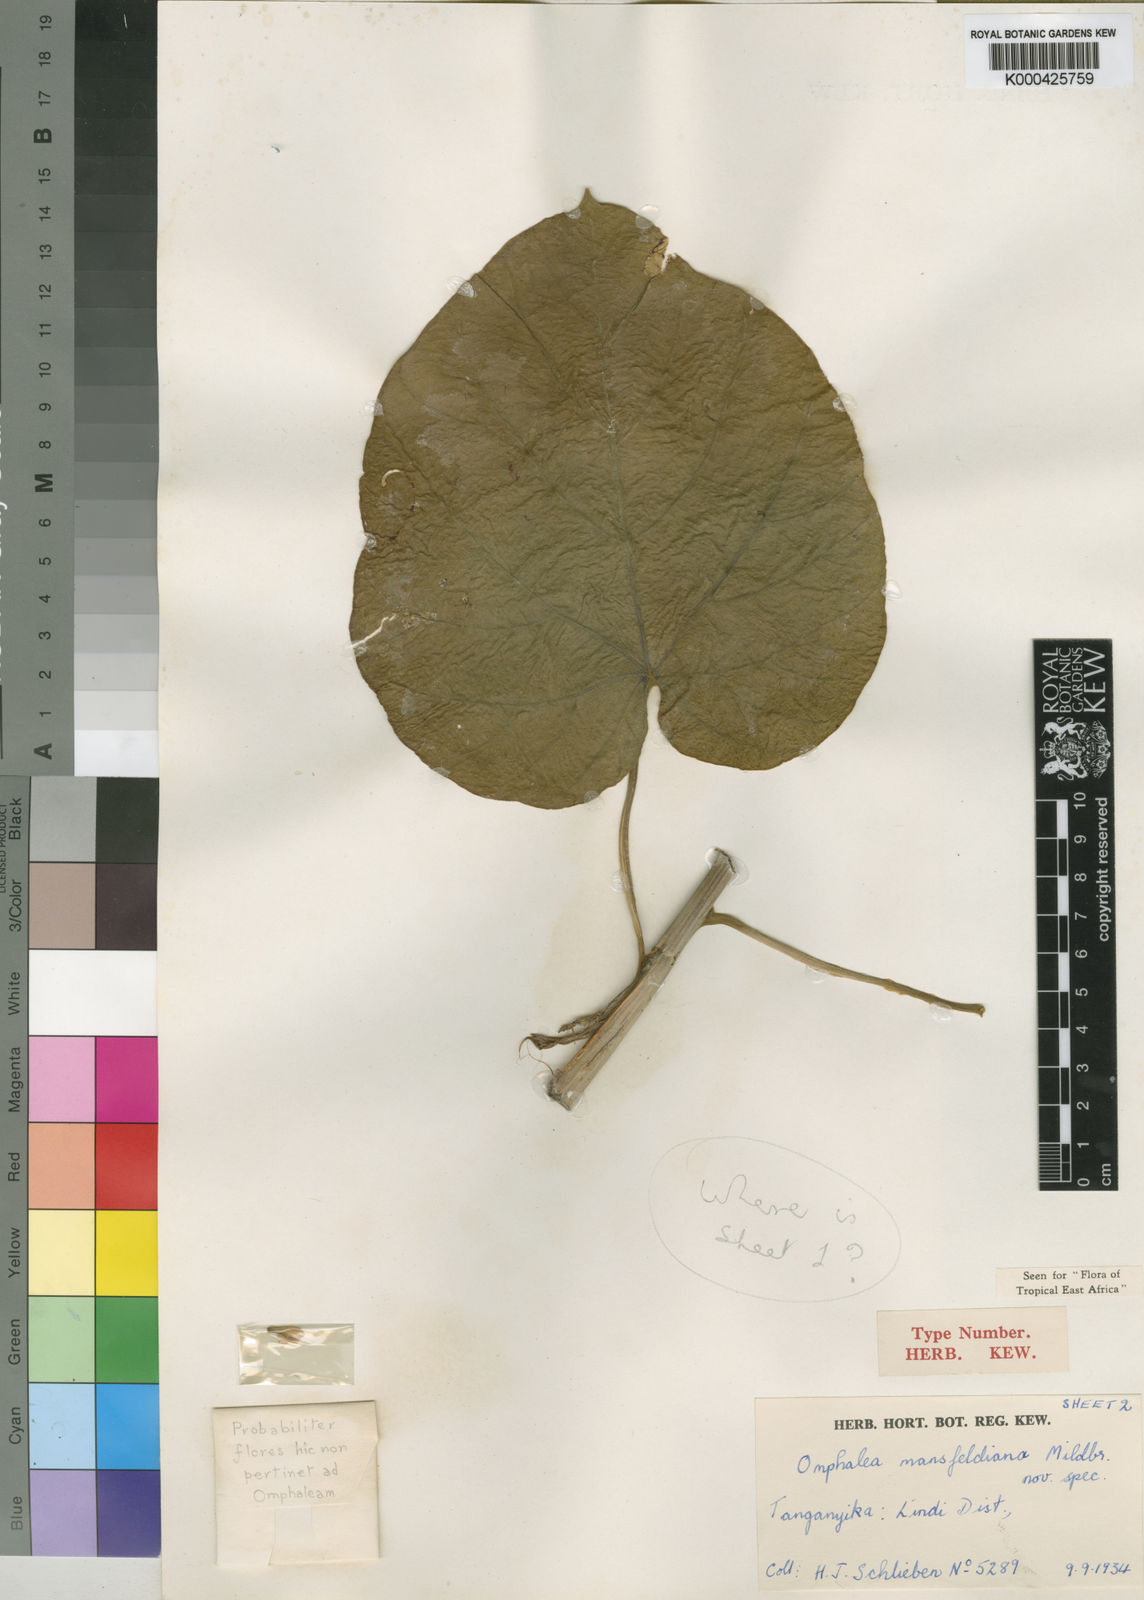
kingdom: Plantae
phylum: Tracheophyta
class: Magnoliopsida
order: Malpighiales
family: Euphorbiaceae
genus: Omphalea
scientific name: Omphalea mansfeldiana
